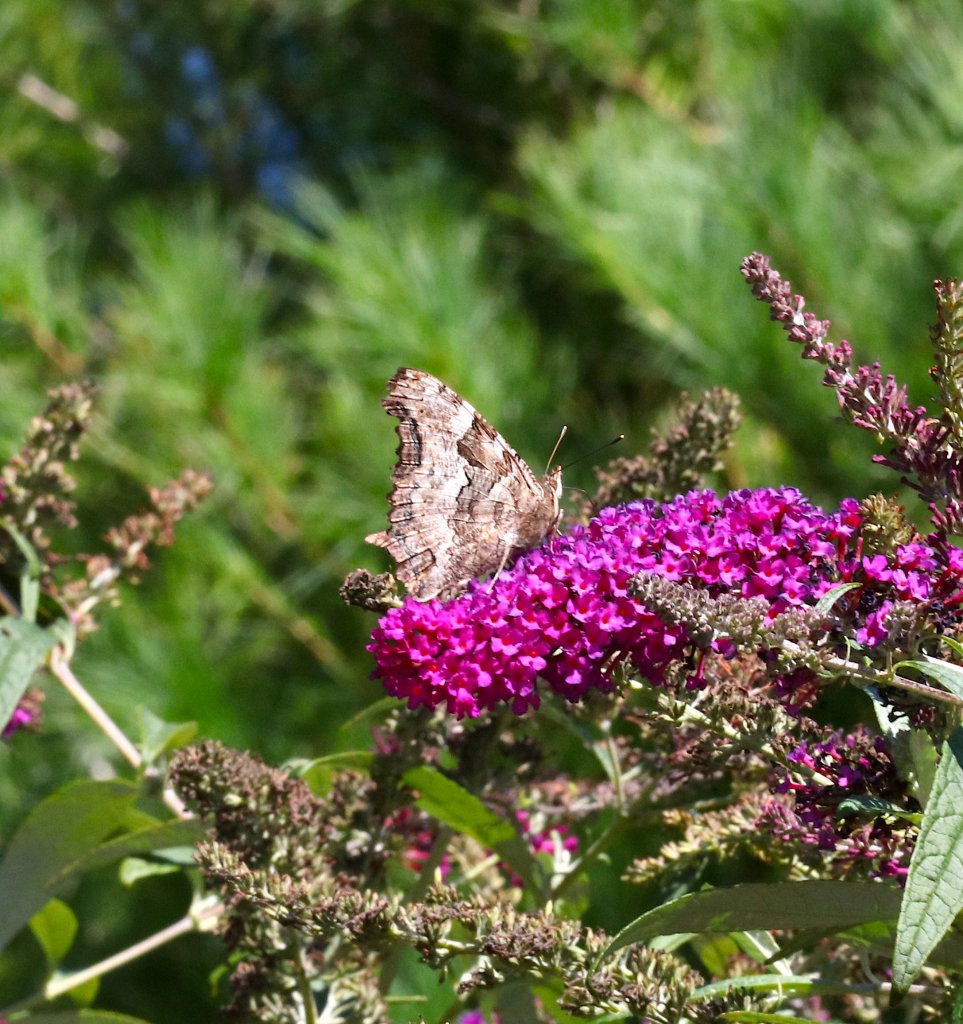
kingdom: Animalia
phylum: Arthropoda
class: Insecta
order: Lepidoptera
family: Nymphalidae
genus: Polygonia
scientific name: Polygonia vaualbum
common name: Compton Tortoiseshell
